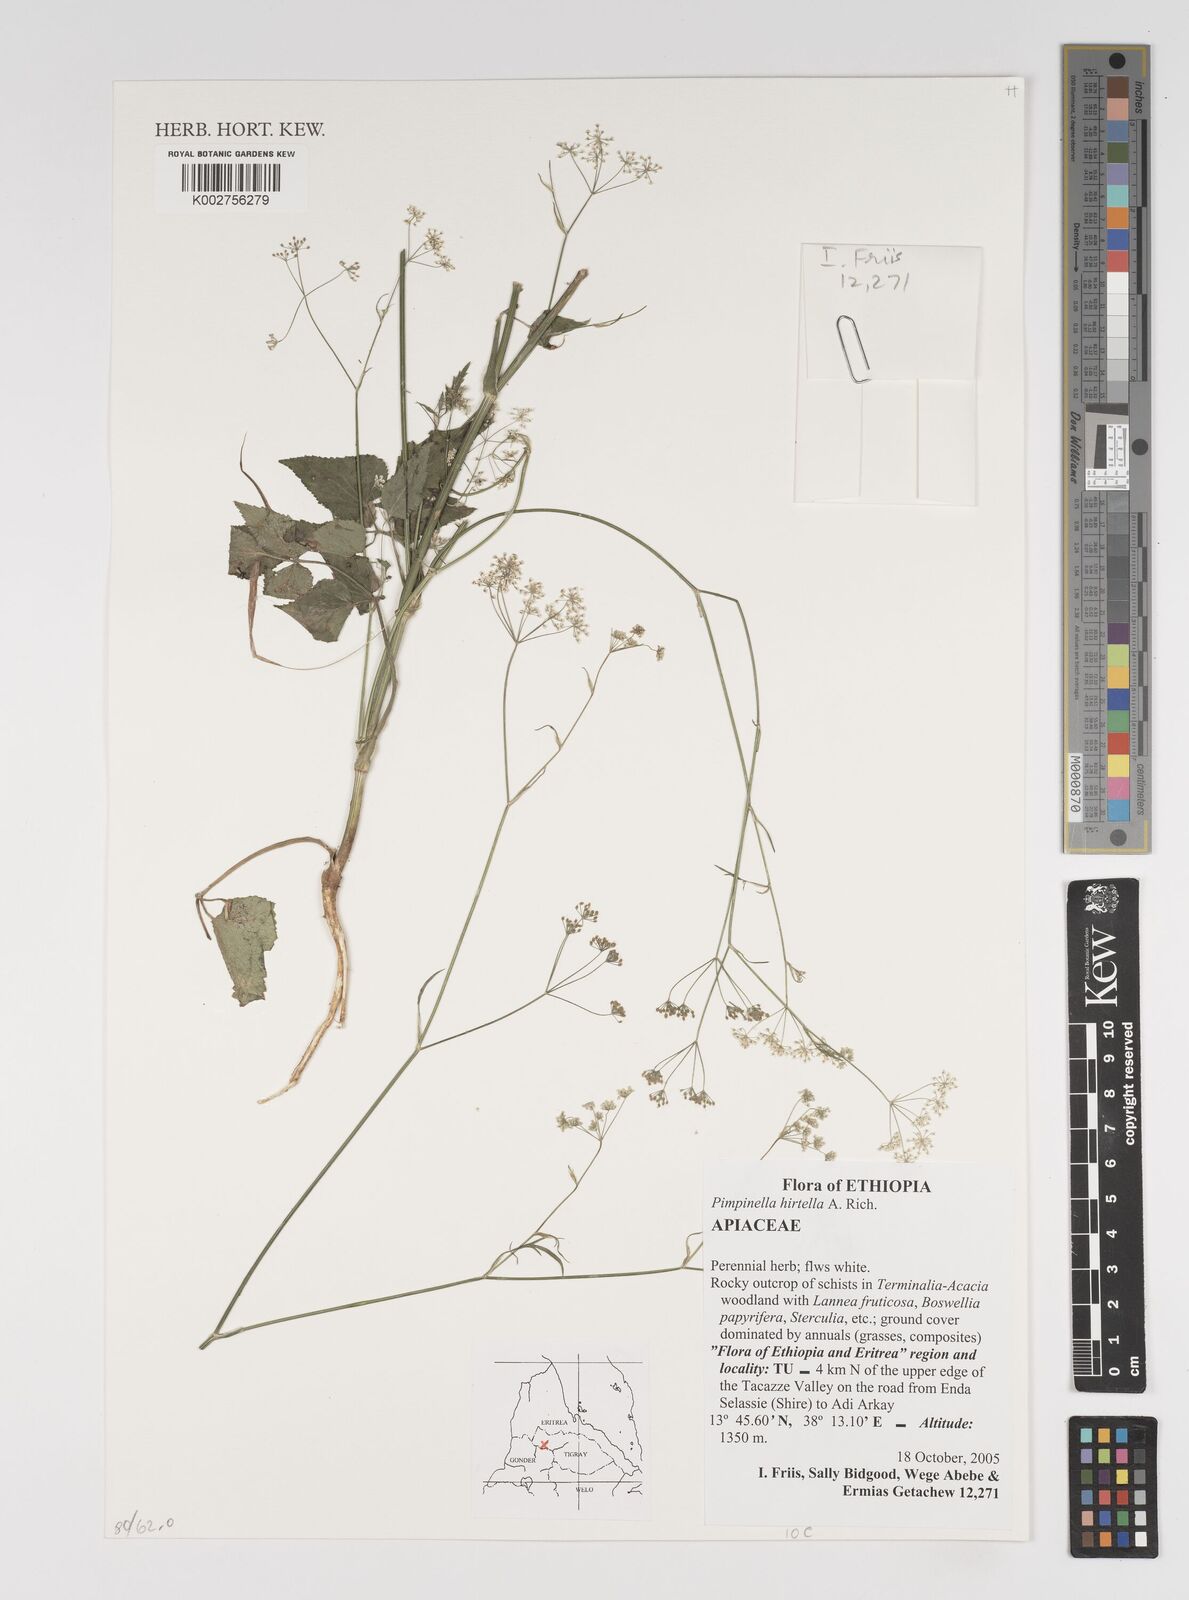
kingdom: Plantae
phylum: Tracheophyta
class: Magnoliopsida
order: Apiales
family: Apiaceae
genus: Pimpinella
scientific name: Pimpinella hirtella
